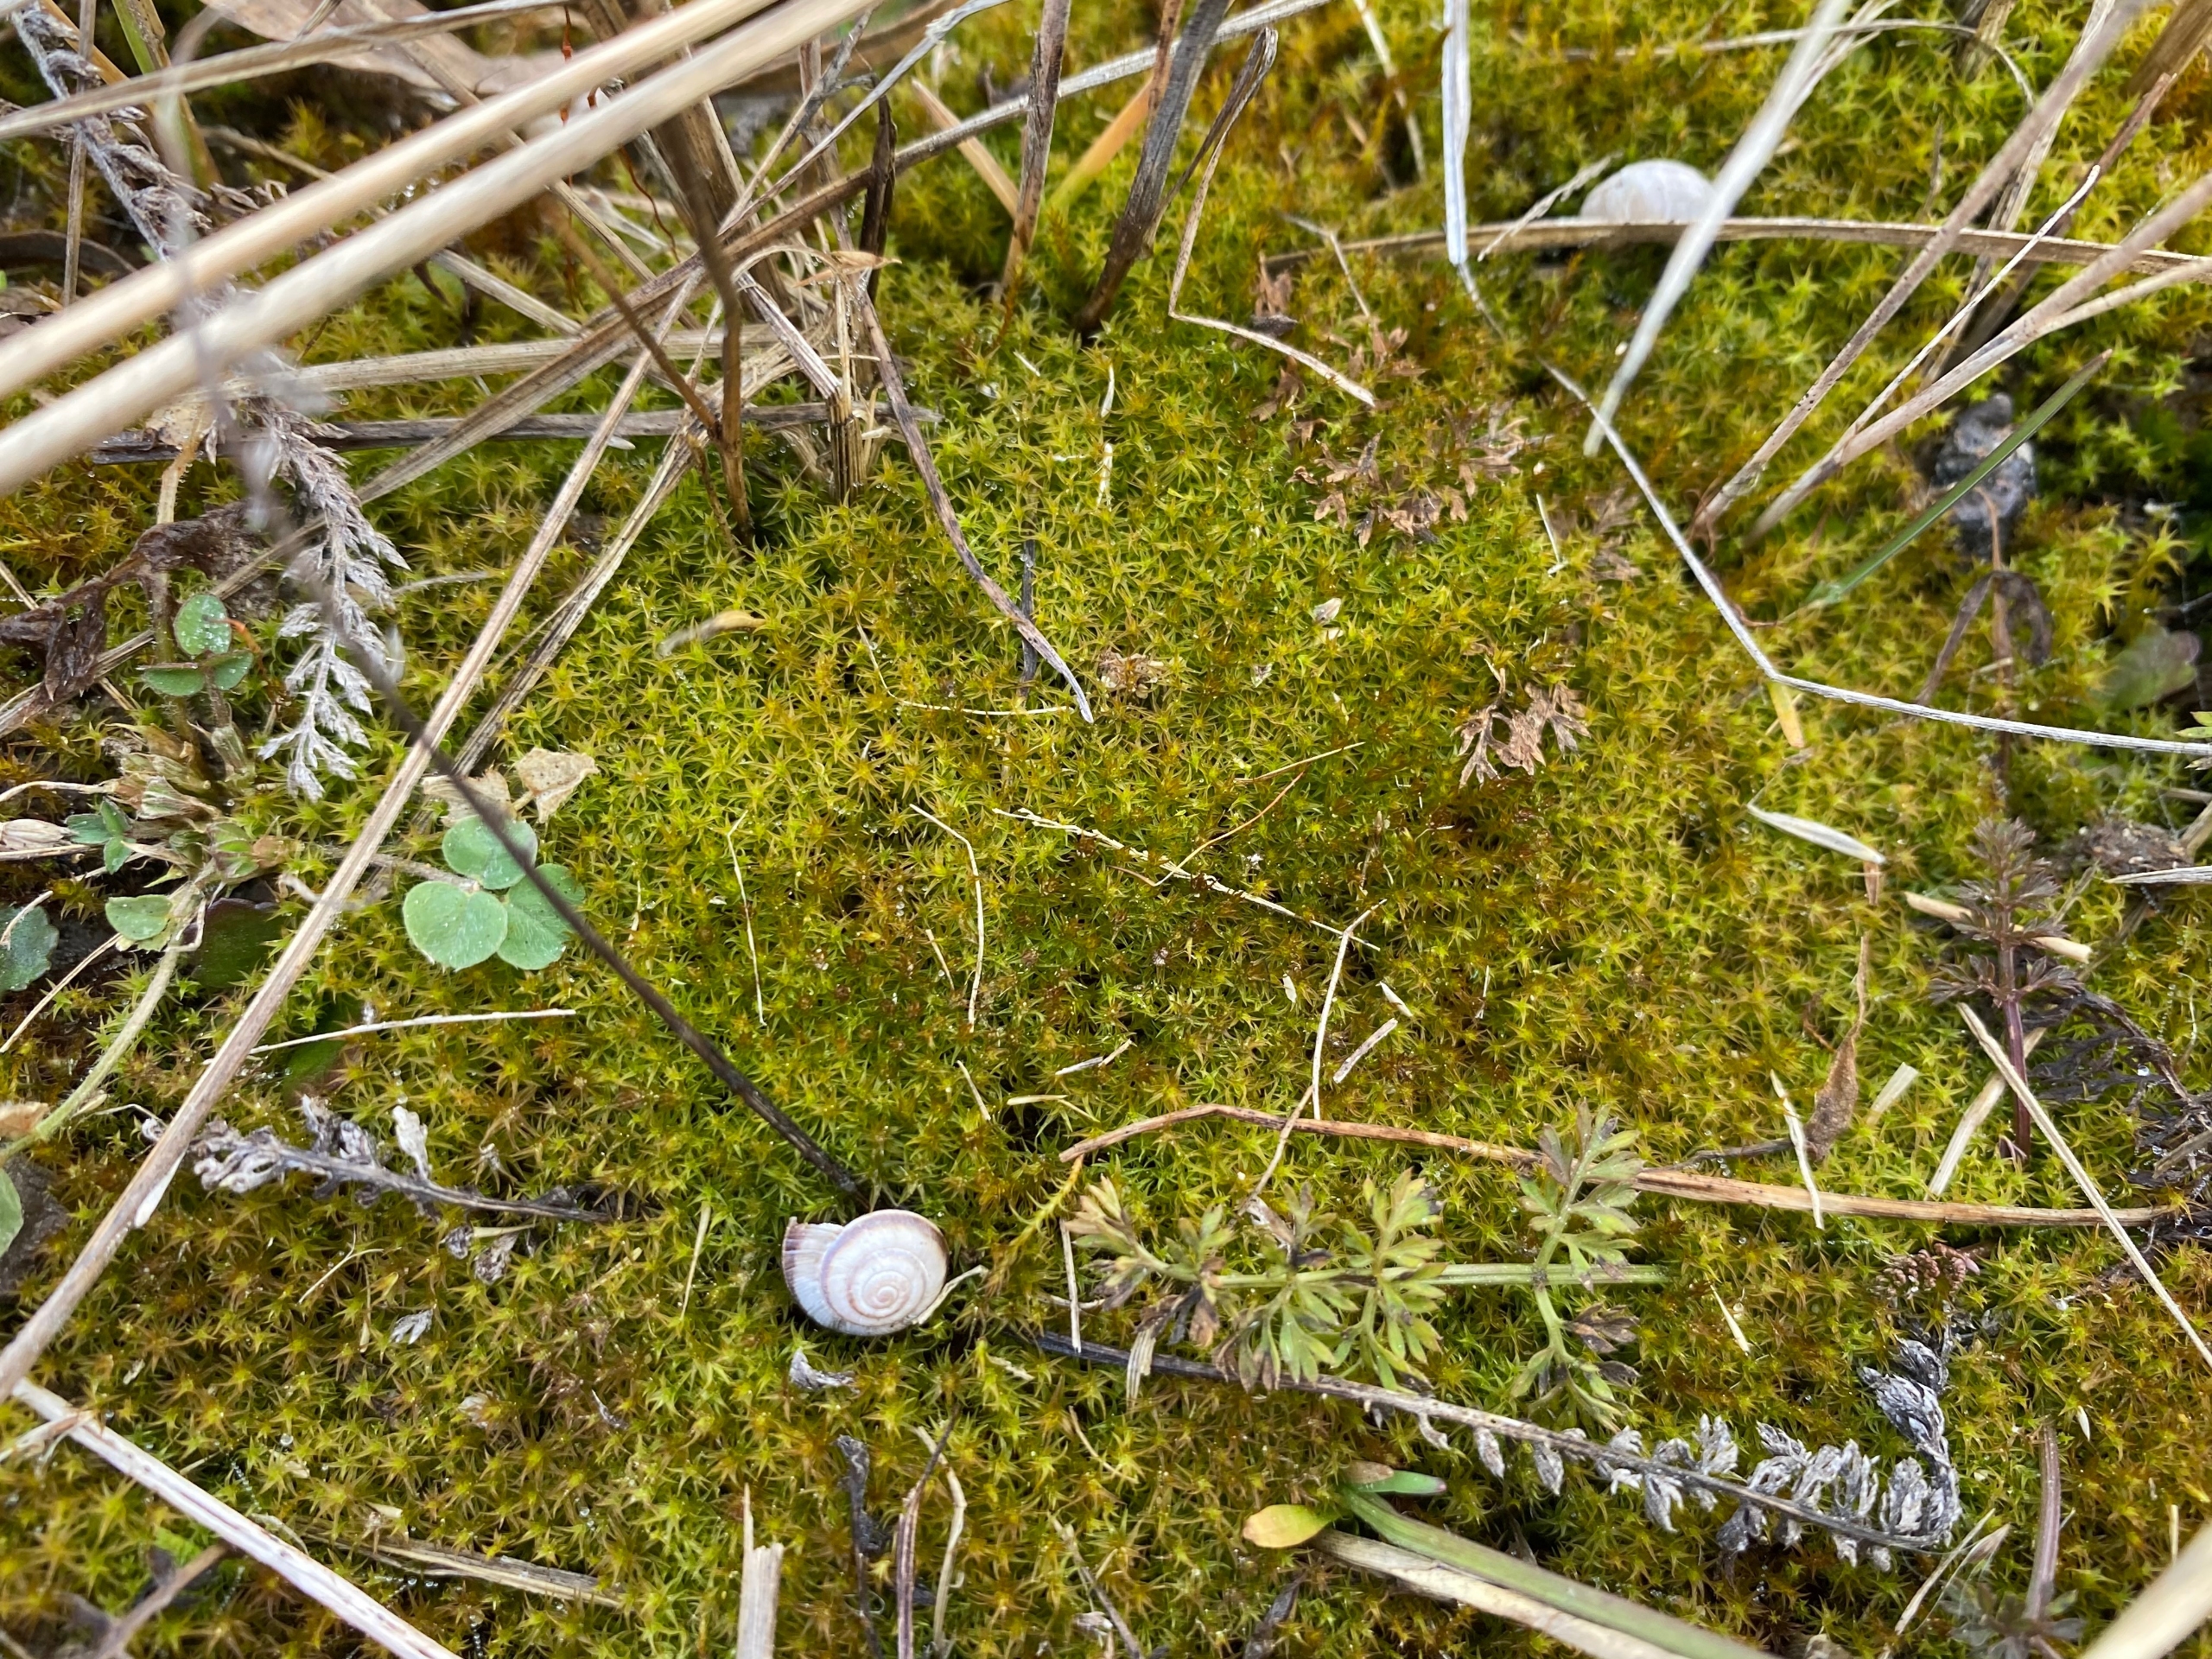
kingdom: Plantae
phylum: Bryophyta
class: Bryopsida
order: Pottiales
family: Pottiaceae
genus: Geheebia
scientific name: Geheebia fallax
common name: Variabel kalktuemos
